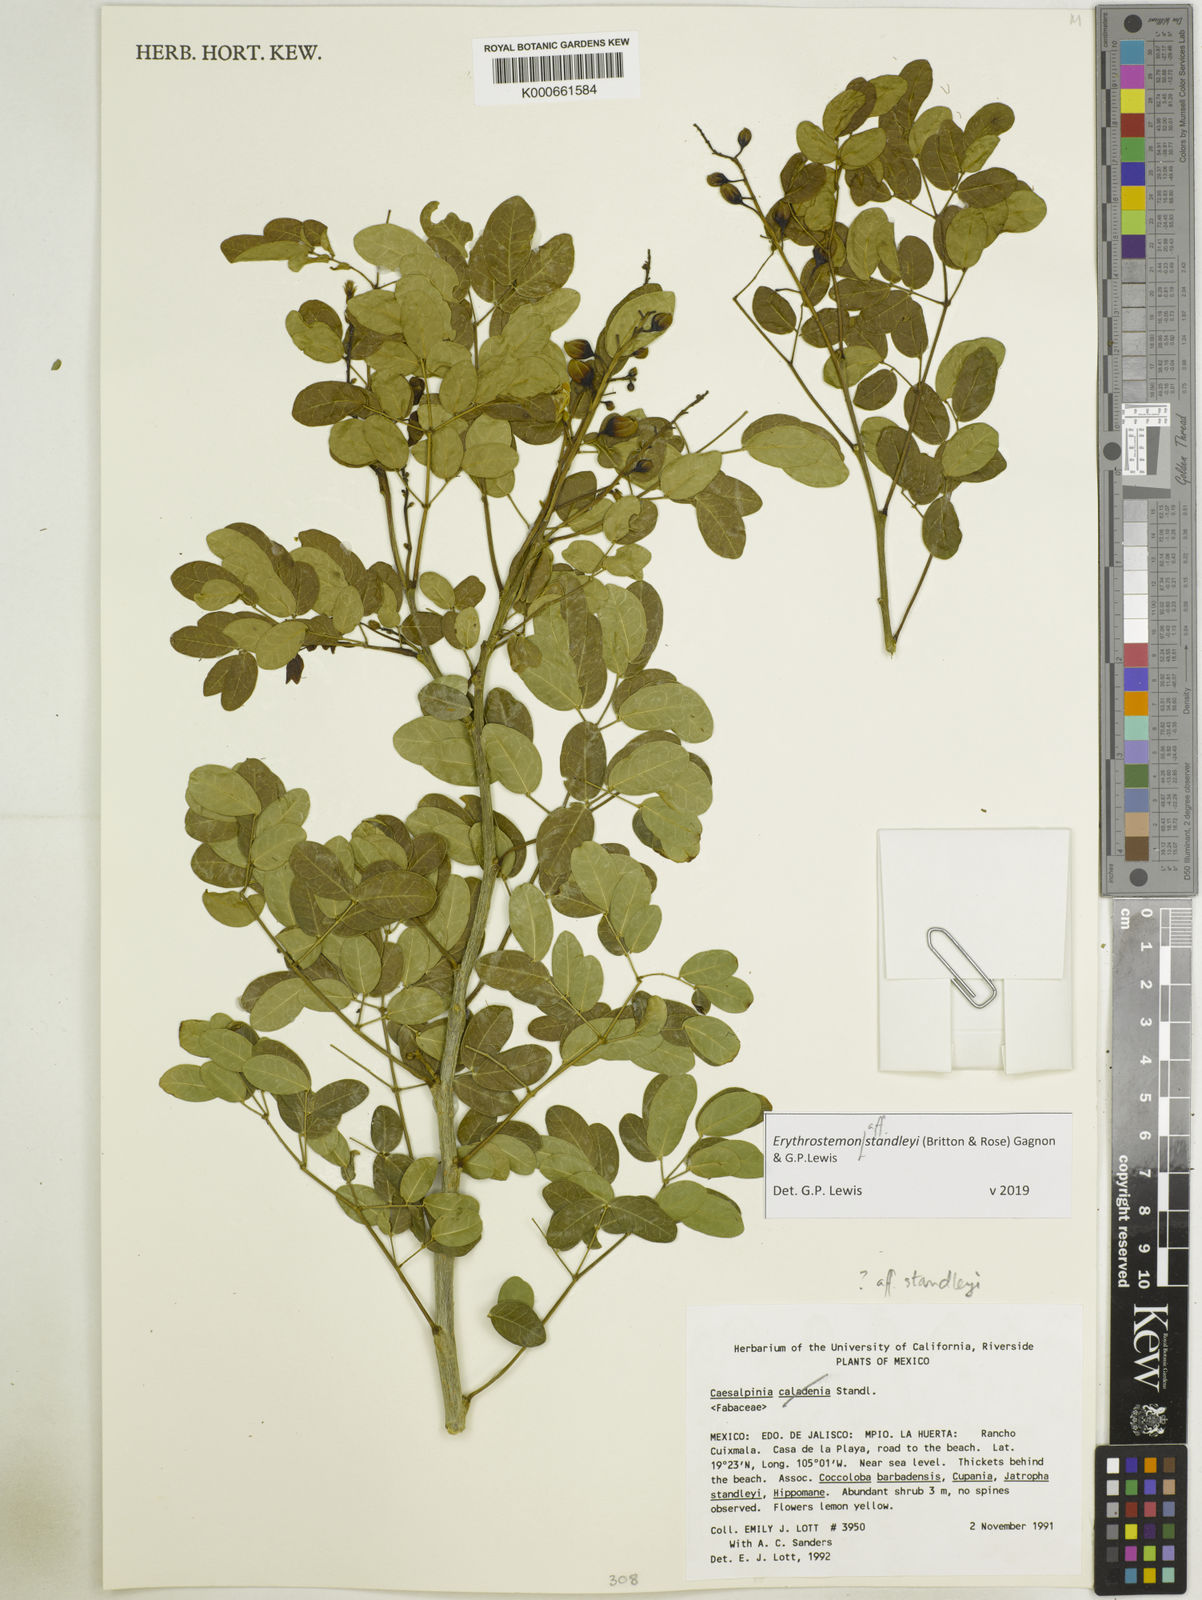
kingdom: Plantae
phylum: Tracheophyta
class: Magnoliopsida
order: Fabales
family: Fabaceae
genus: Erythrostemon
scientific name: Erythrostemon standleyi
